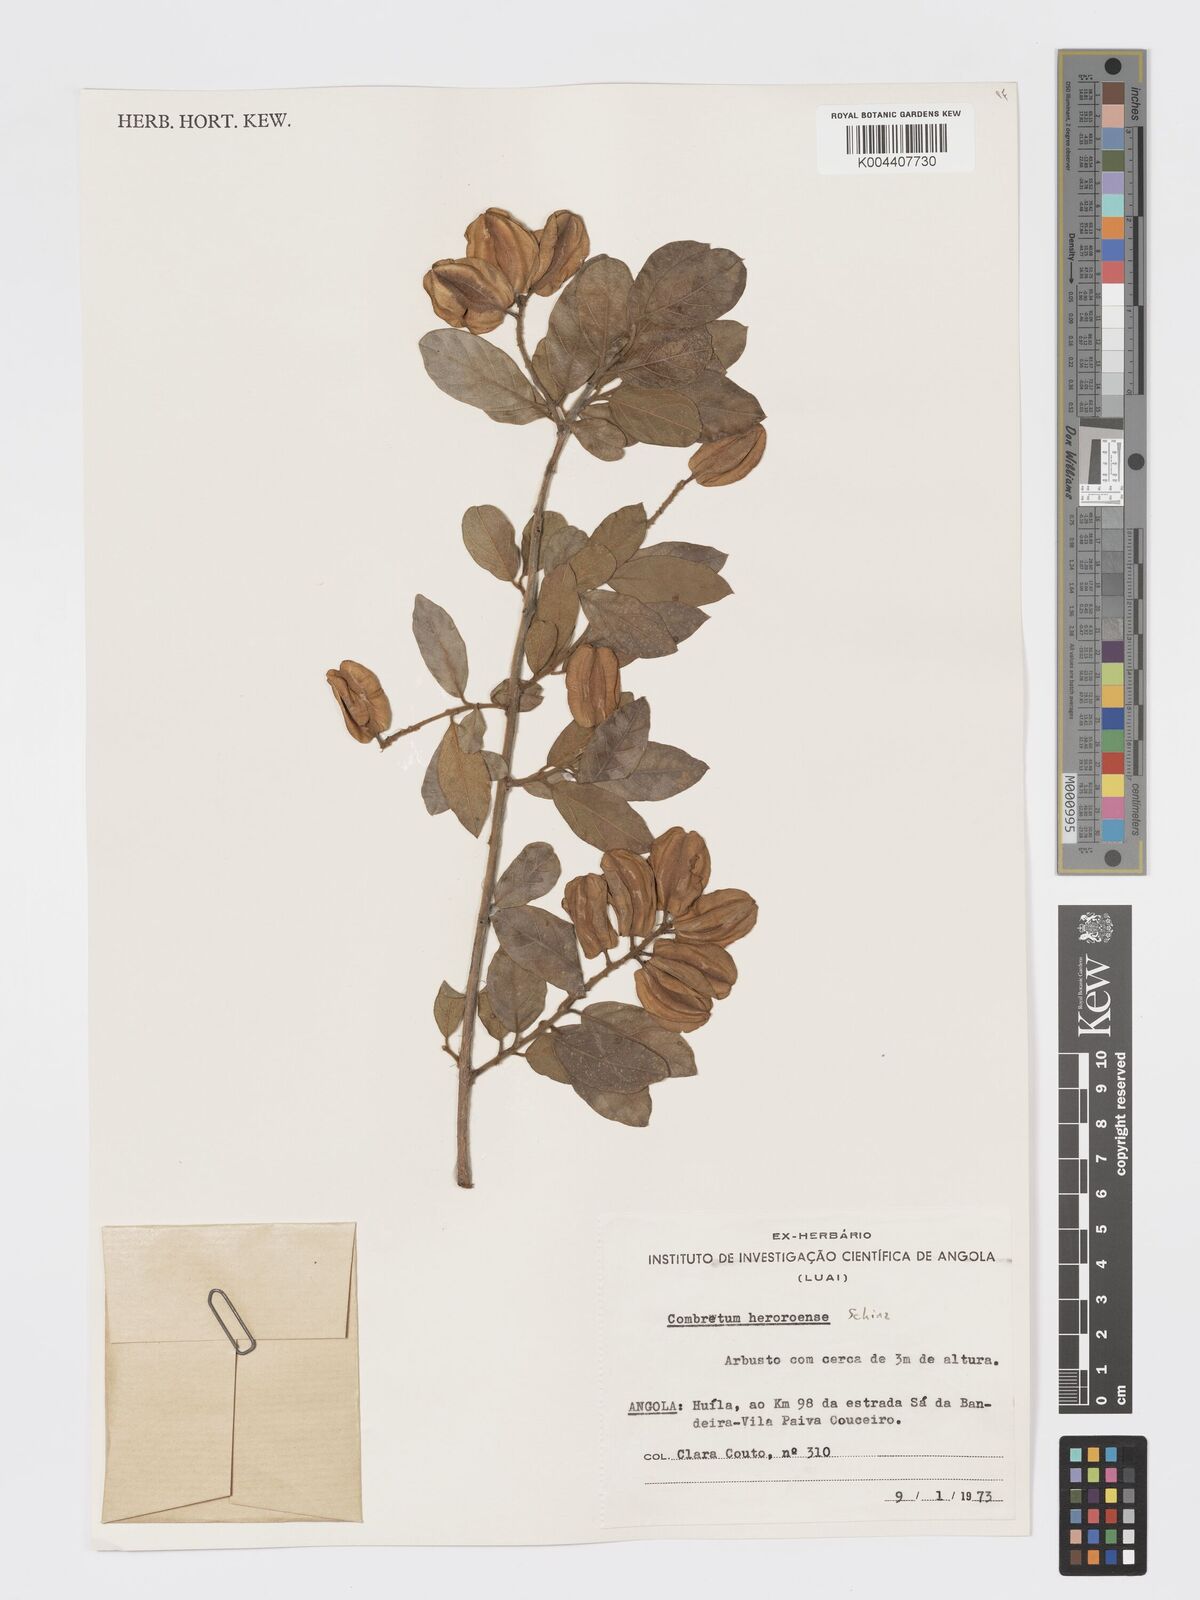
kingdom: Plantae
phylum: Tracheophyta
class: Magnoliopsida
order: Myrtales
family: Combretaceae
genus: Combretum
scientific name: Combretum hereroense
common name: Russet bushwillow
